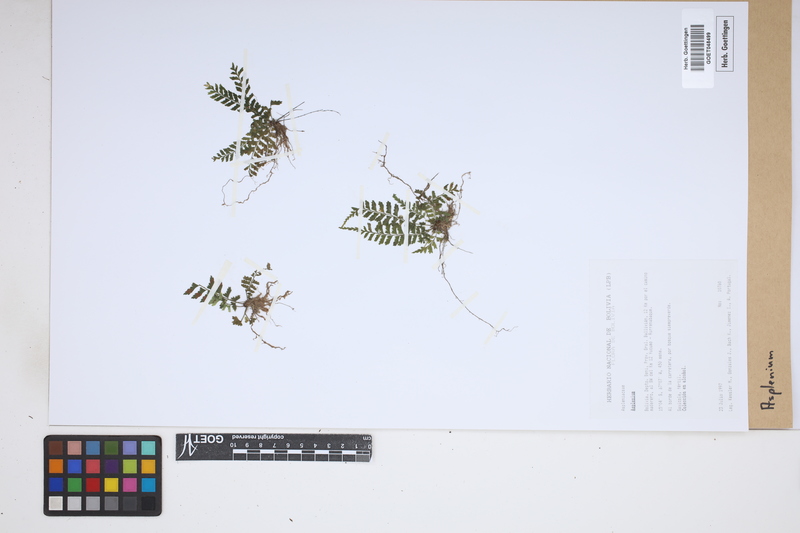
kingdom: Plantae
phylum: Tracheophyta
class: Polypodiopsida
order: Polypodiales
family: Aspleniaceae
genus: Asplenium
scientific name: Asplenium
